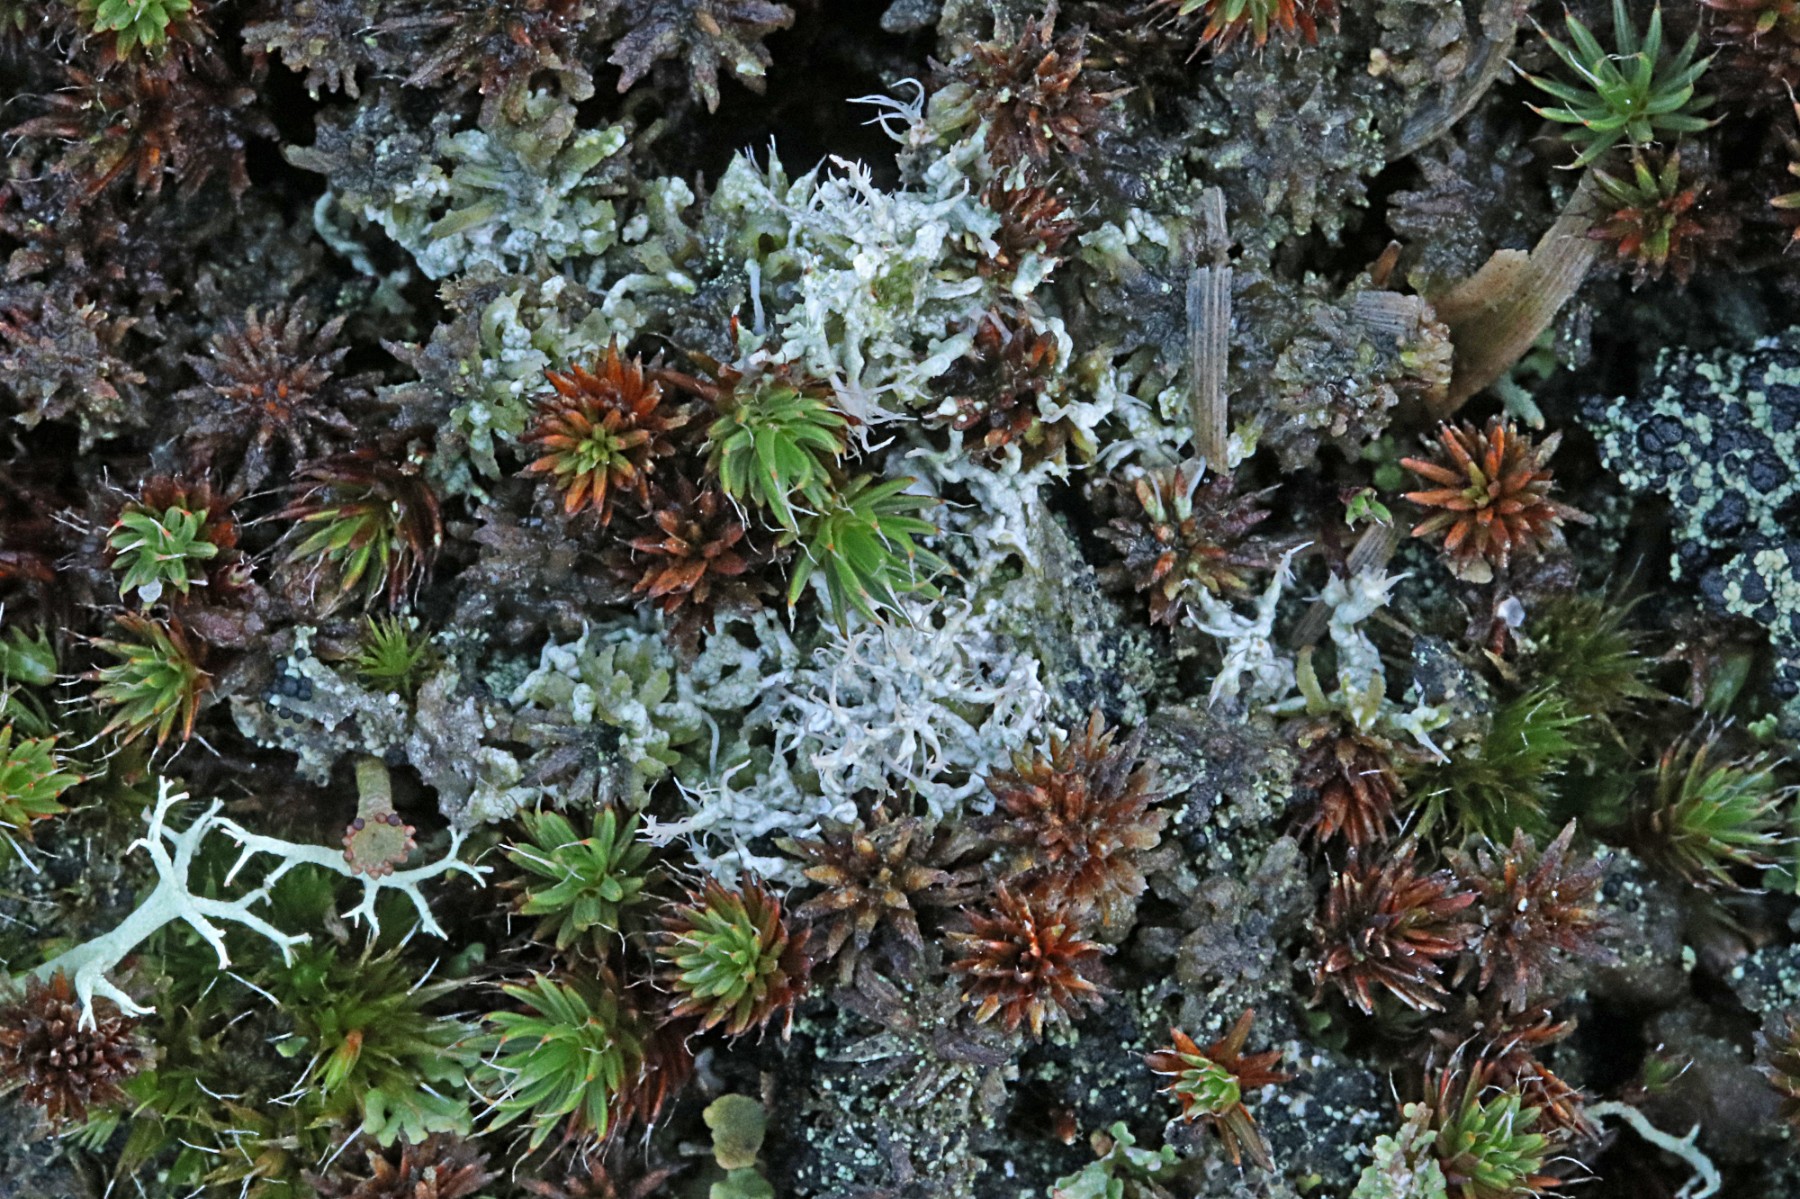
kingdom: Fungi
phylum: Ascomycota
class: Lecanoromycetes
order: Pertusariales
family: Ochrolechiaceae
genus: Ochrolechia
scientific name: Ochrolechia frigida
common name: fjeld-blegskivelav
